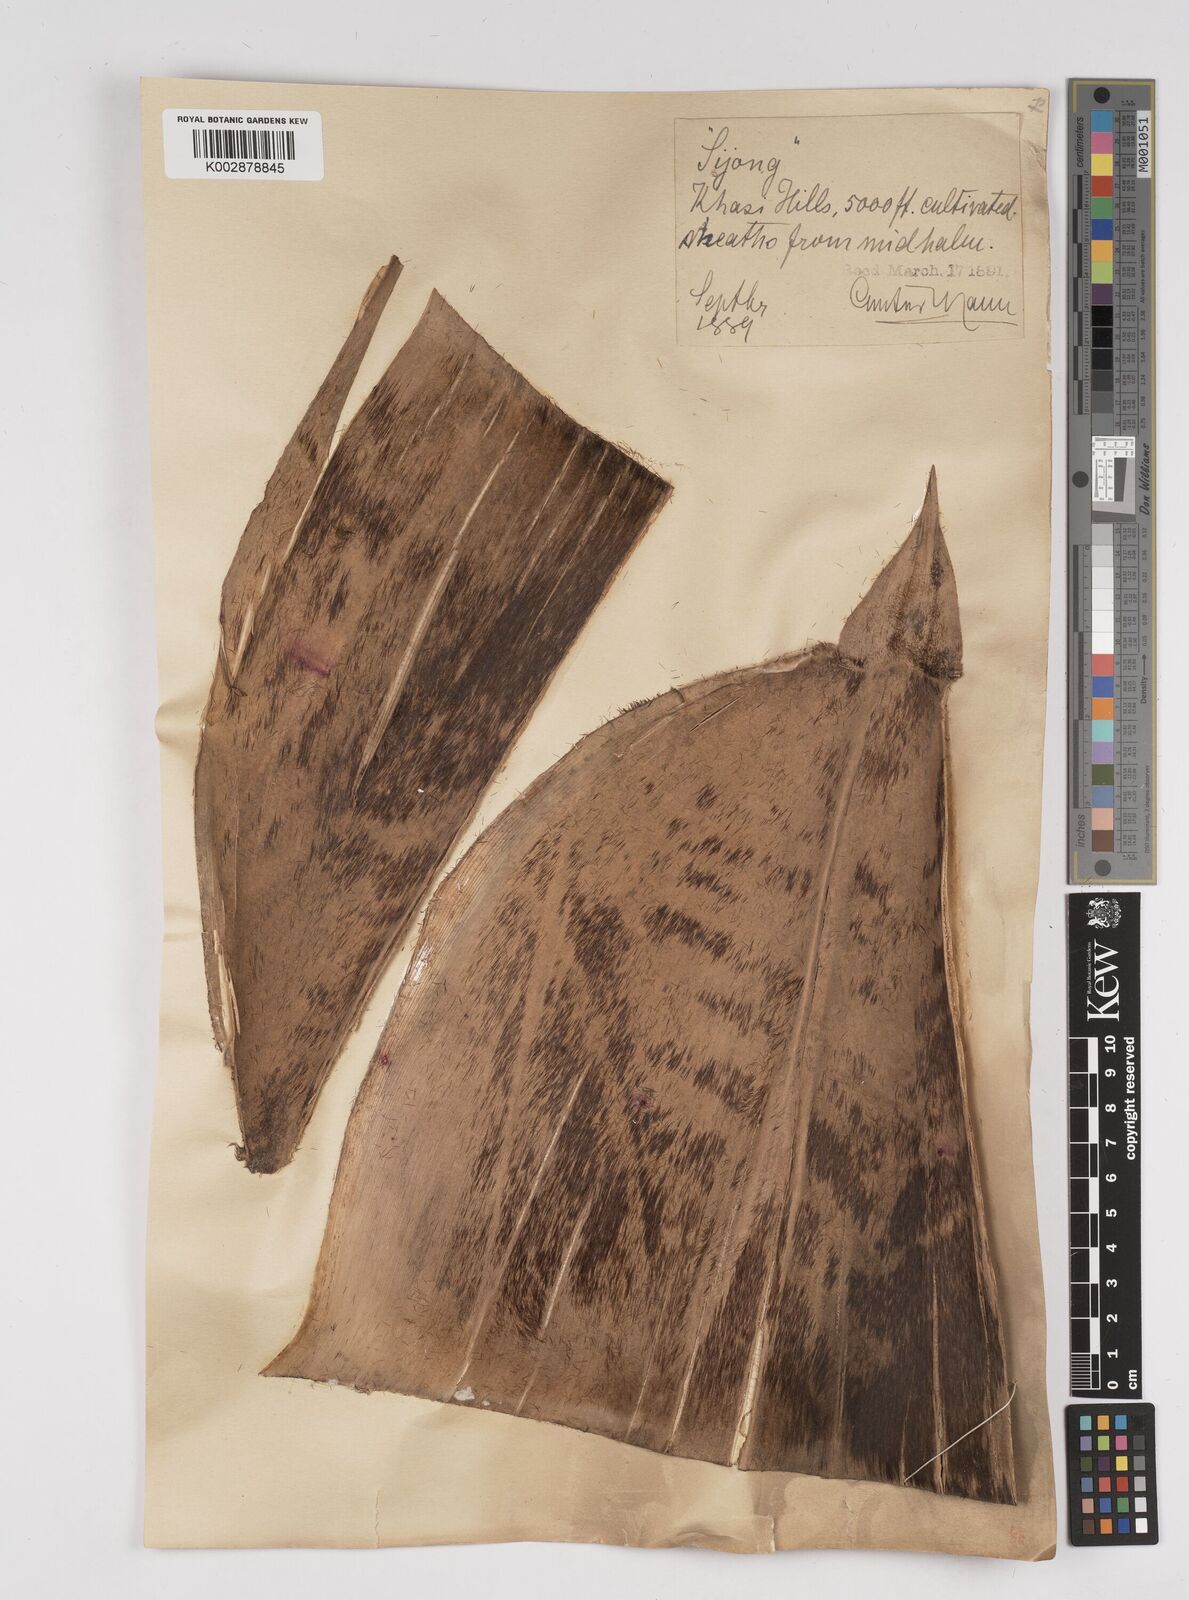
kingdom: Plantae
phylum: Tracheophyta
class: Liliopsida
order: Poales
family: Poaceae
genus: Dendrocalamus
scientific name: Dendrocalamus hookeri
